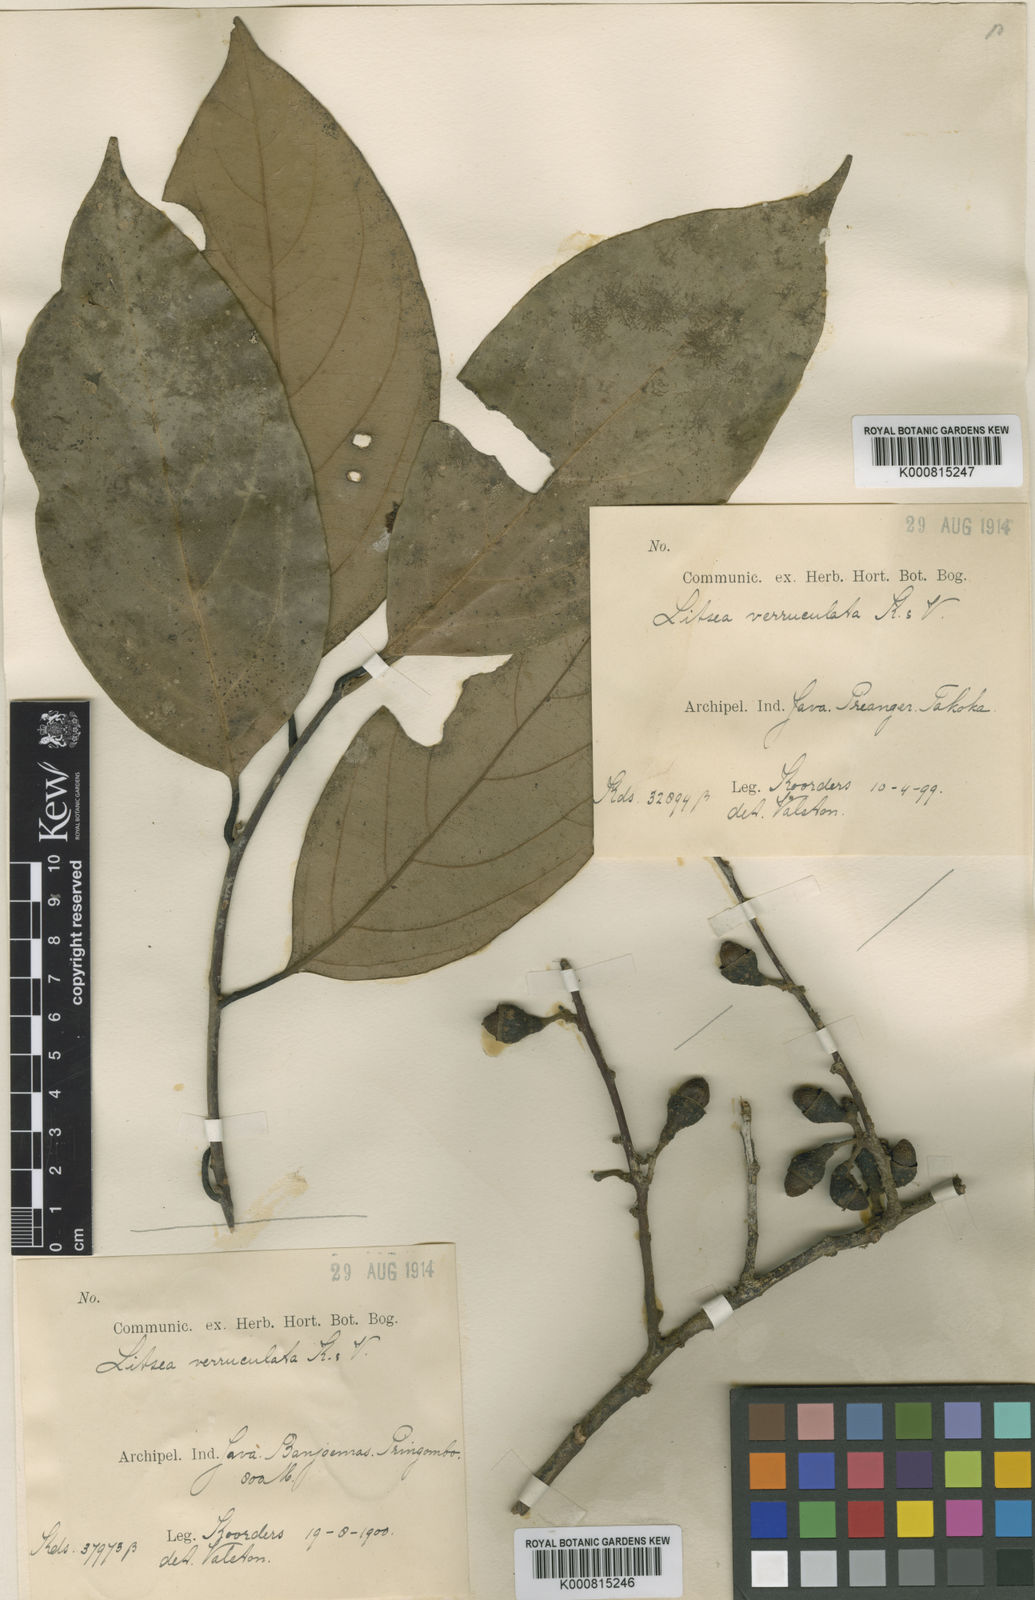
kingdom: Plantae
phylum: Tracheophyta
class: Magnoliopsida
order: Laurales
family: Lauraceae
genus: Litsea
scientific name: Litsea verruculata
